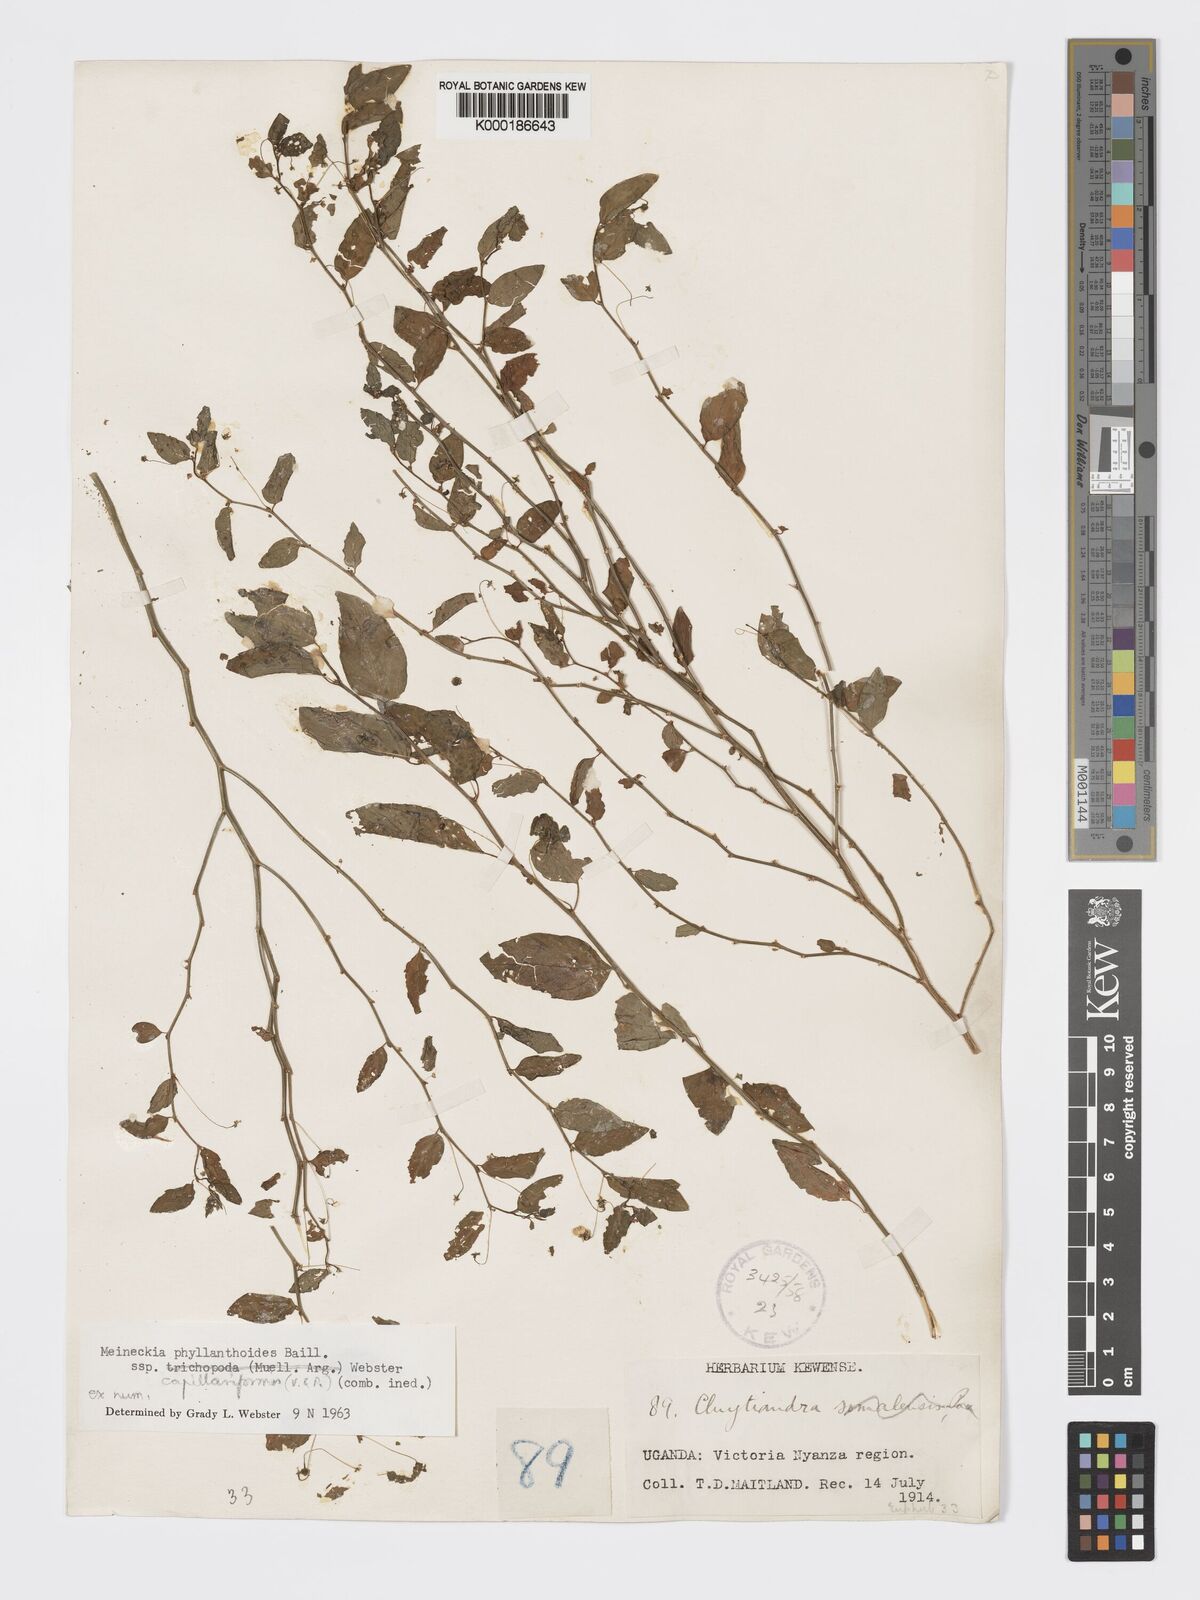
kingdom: Plantae
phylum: Tracheophyta
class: Magnoliopsida
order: Malpighiales
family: Phyllanthaceae
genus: Meineckia
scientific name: Meineckia phyllanthoides
